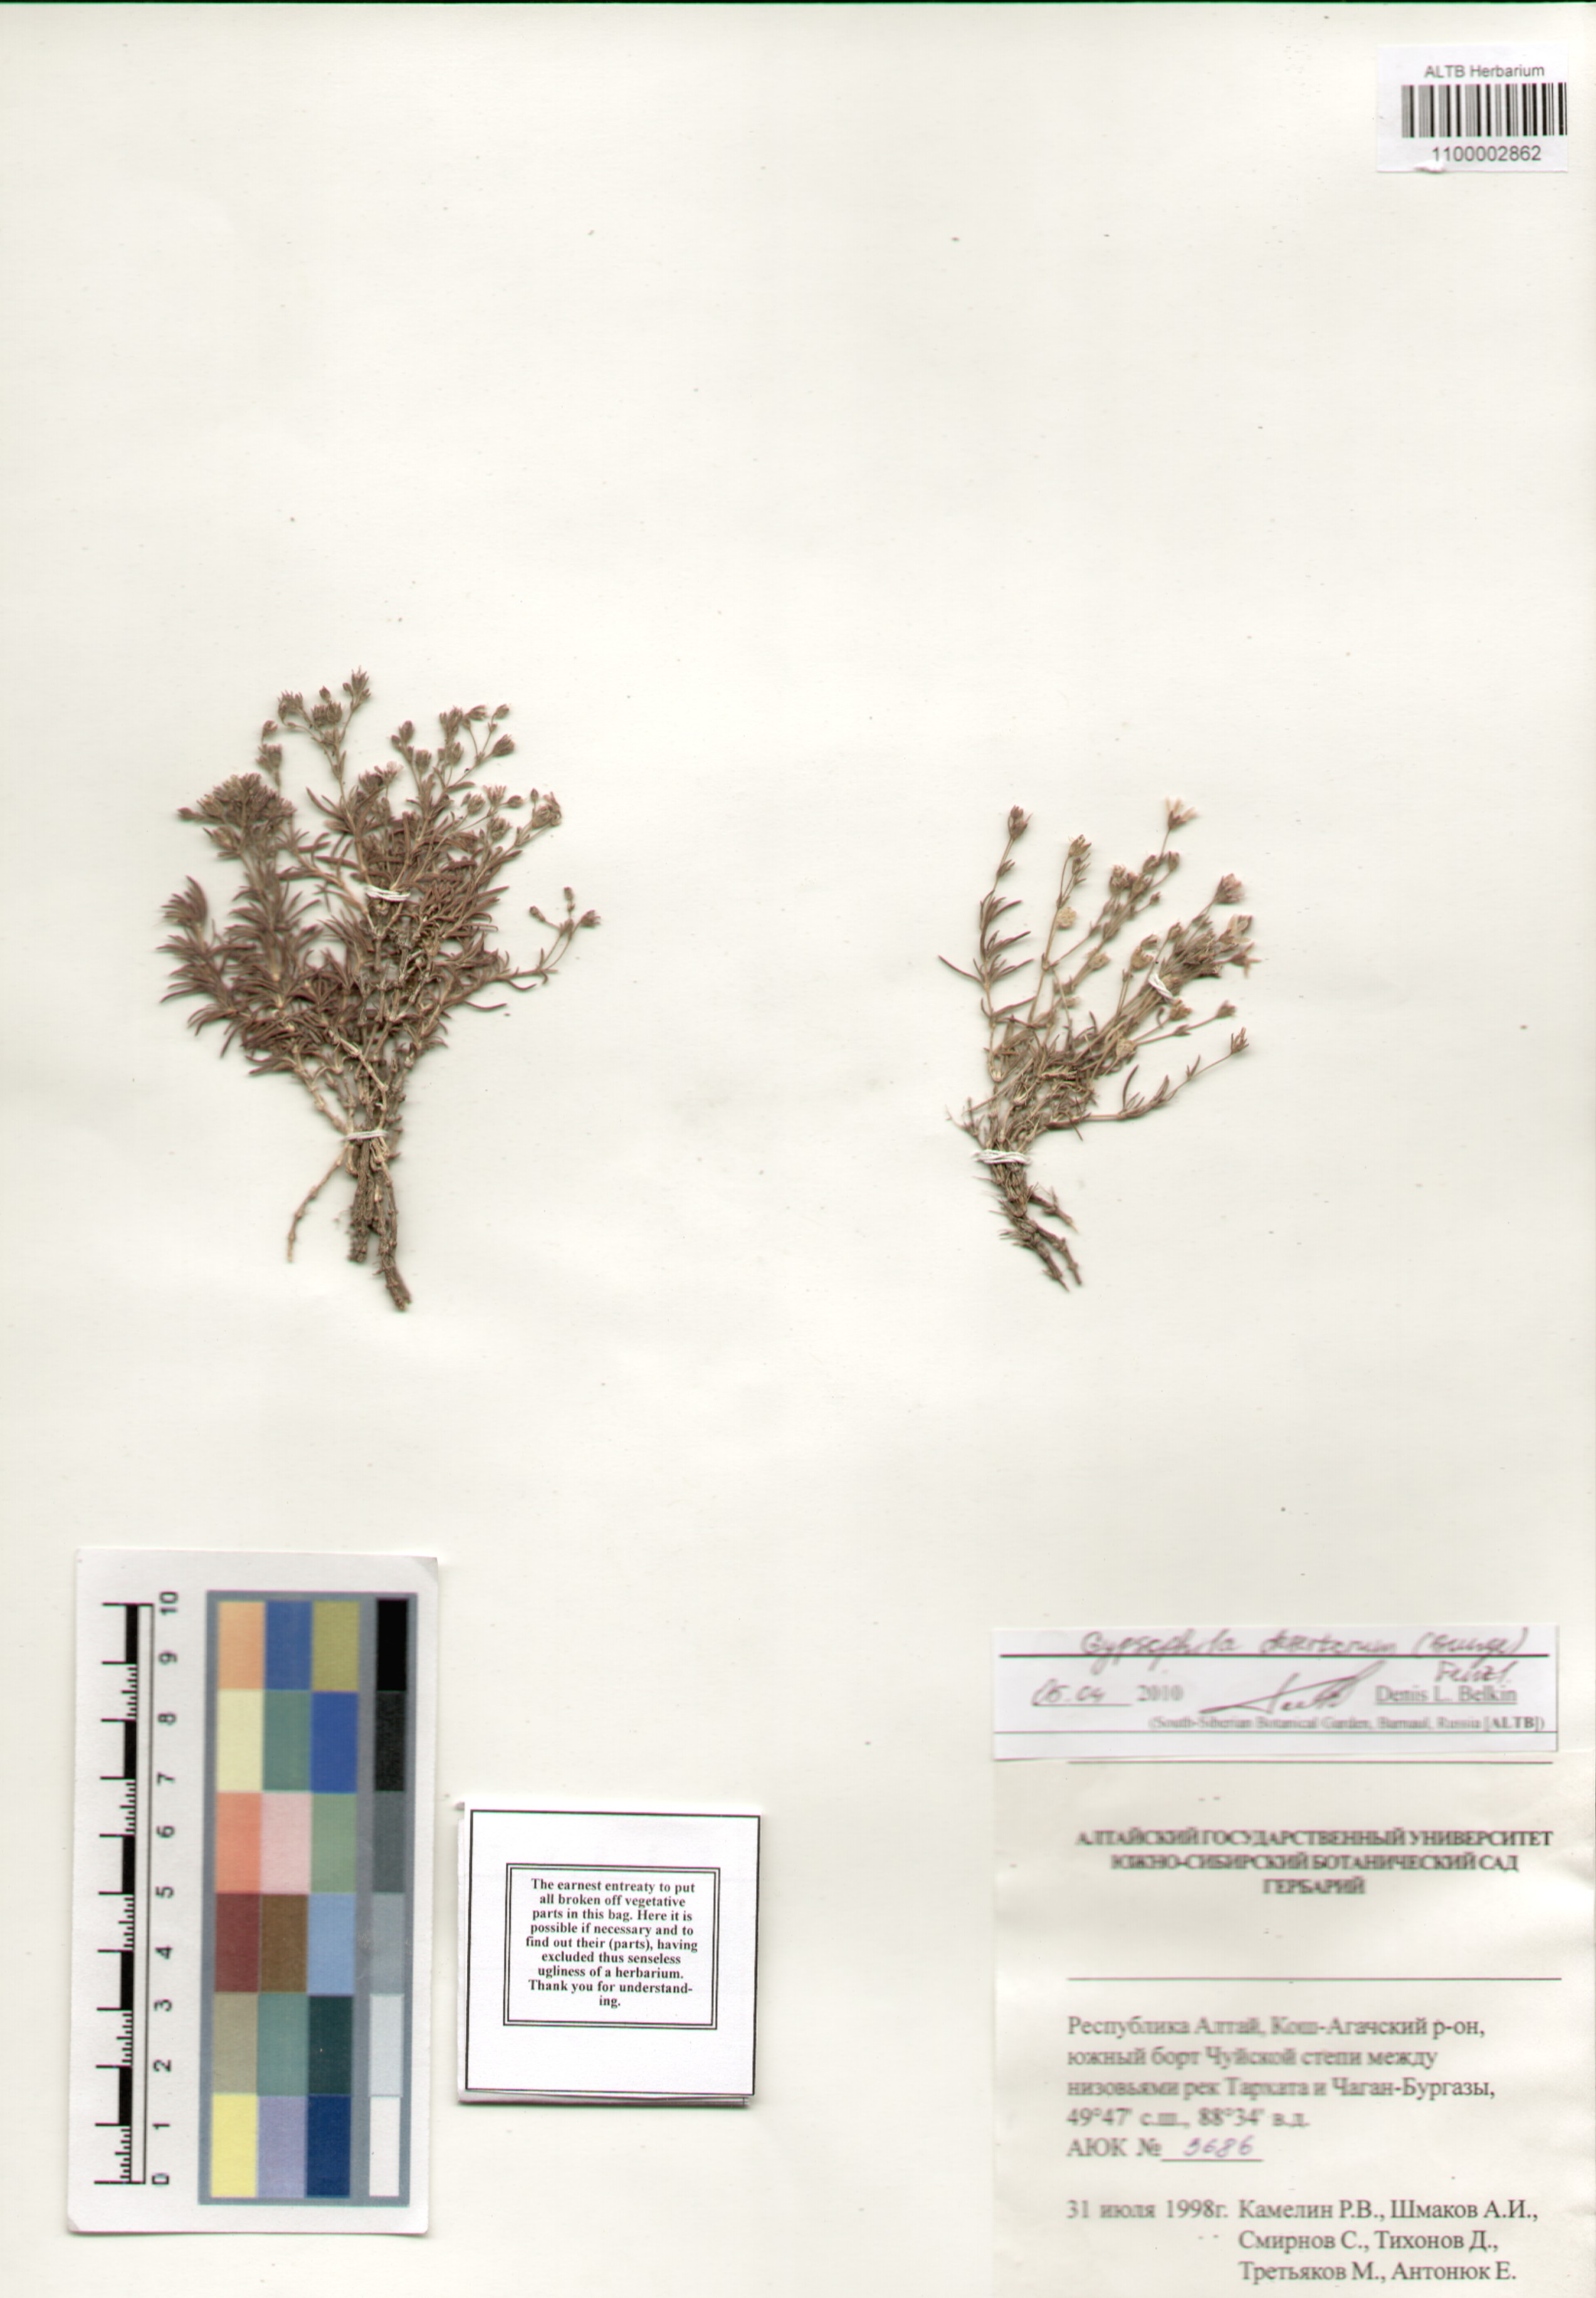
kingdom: Plantae
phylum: Tracheophyta
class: Magnoliopsida
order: Caryophyllales
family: Caryophyllaceae
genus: Heterochroa
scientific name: Heterochroa desertorum
